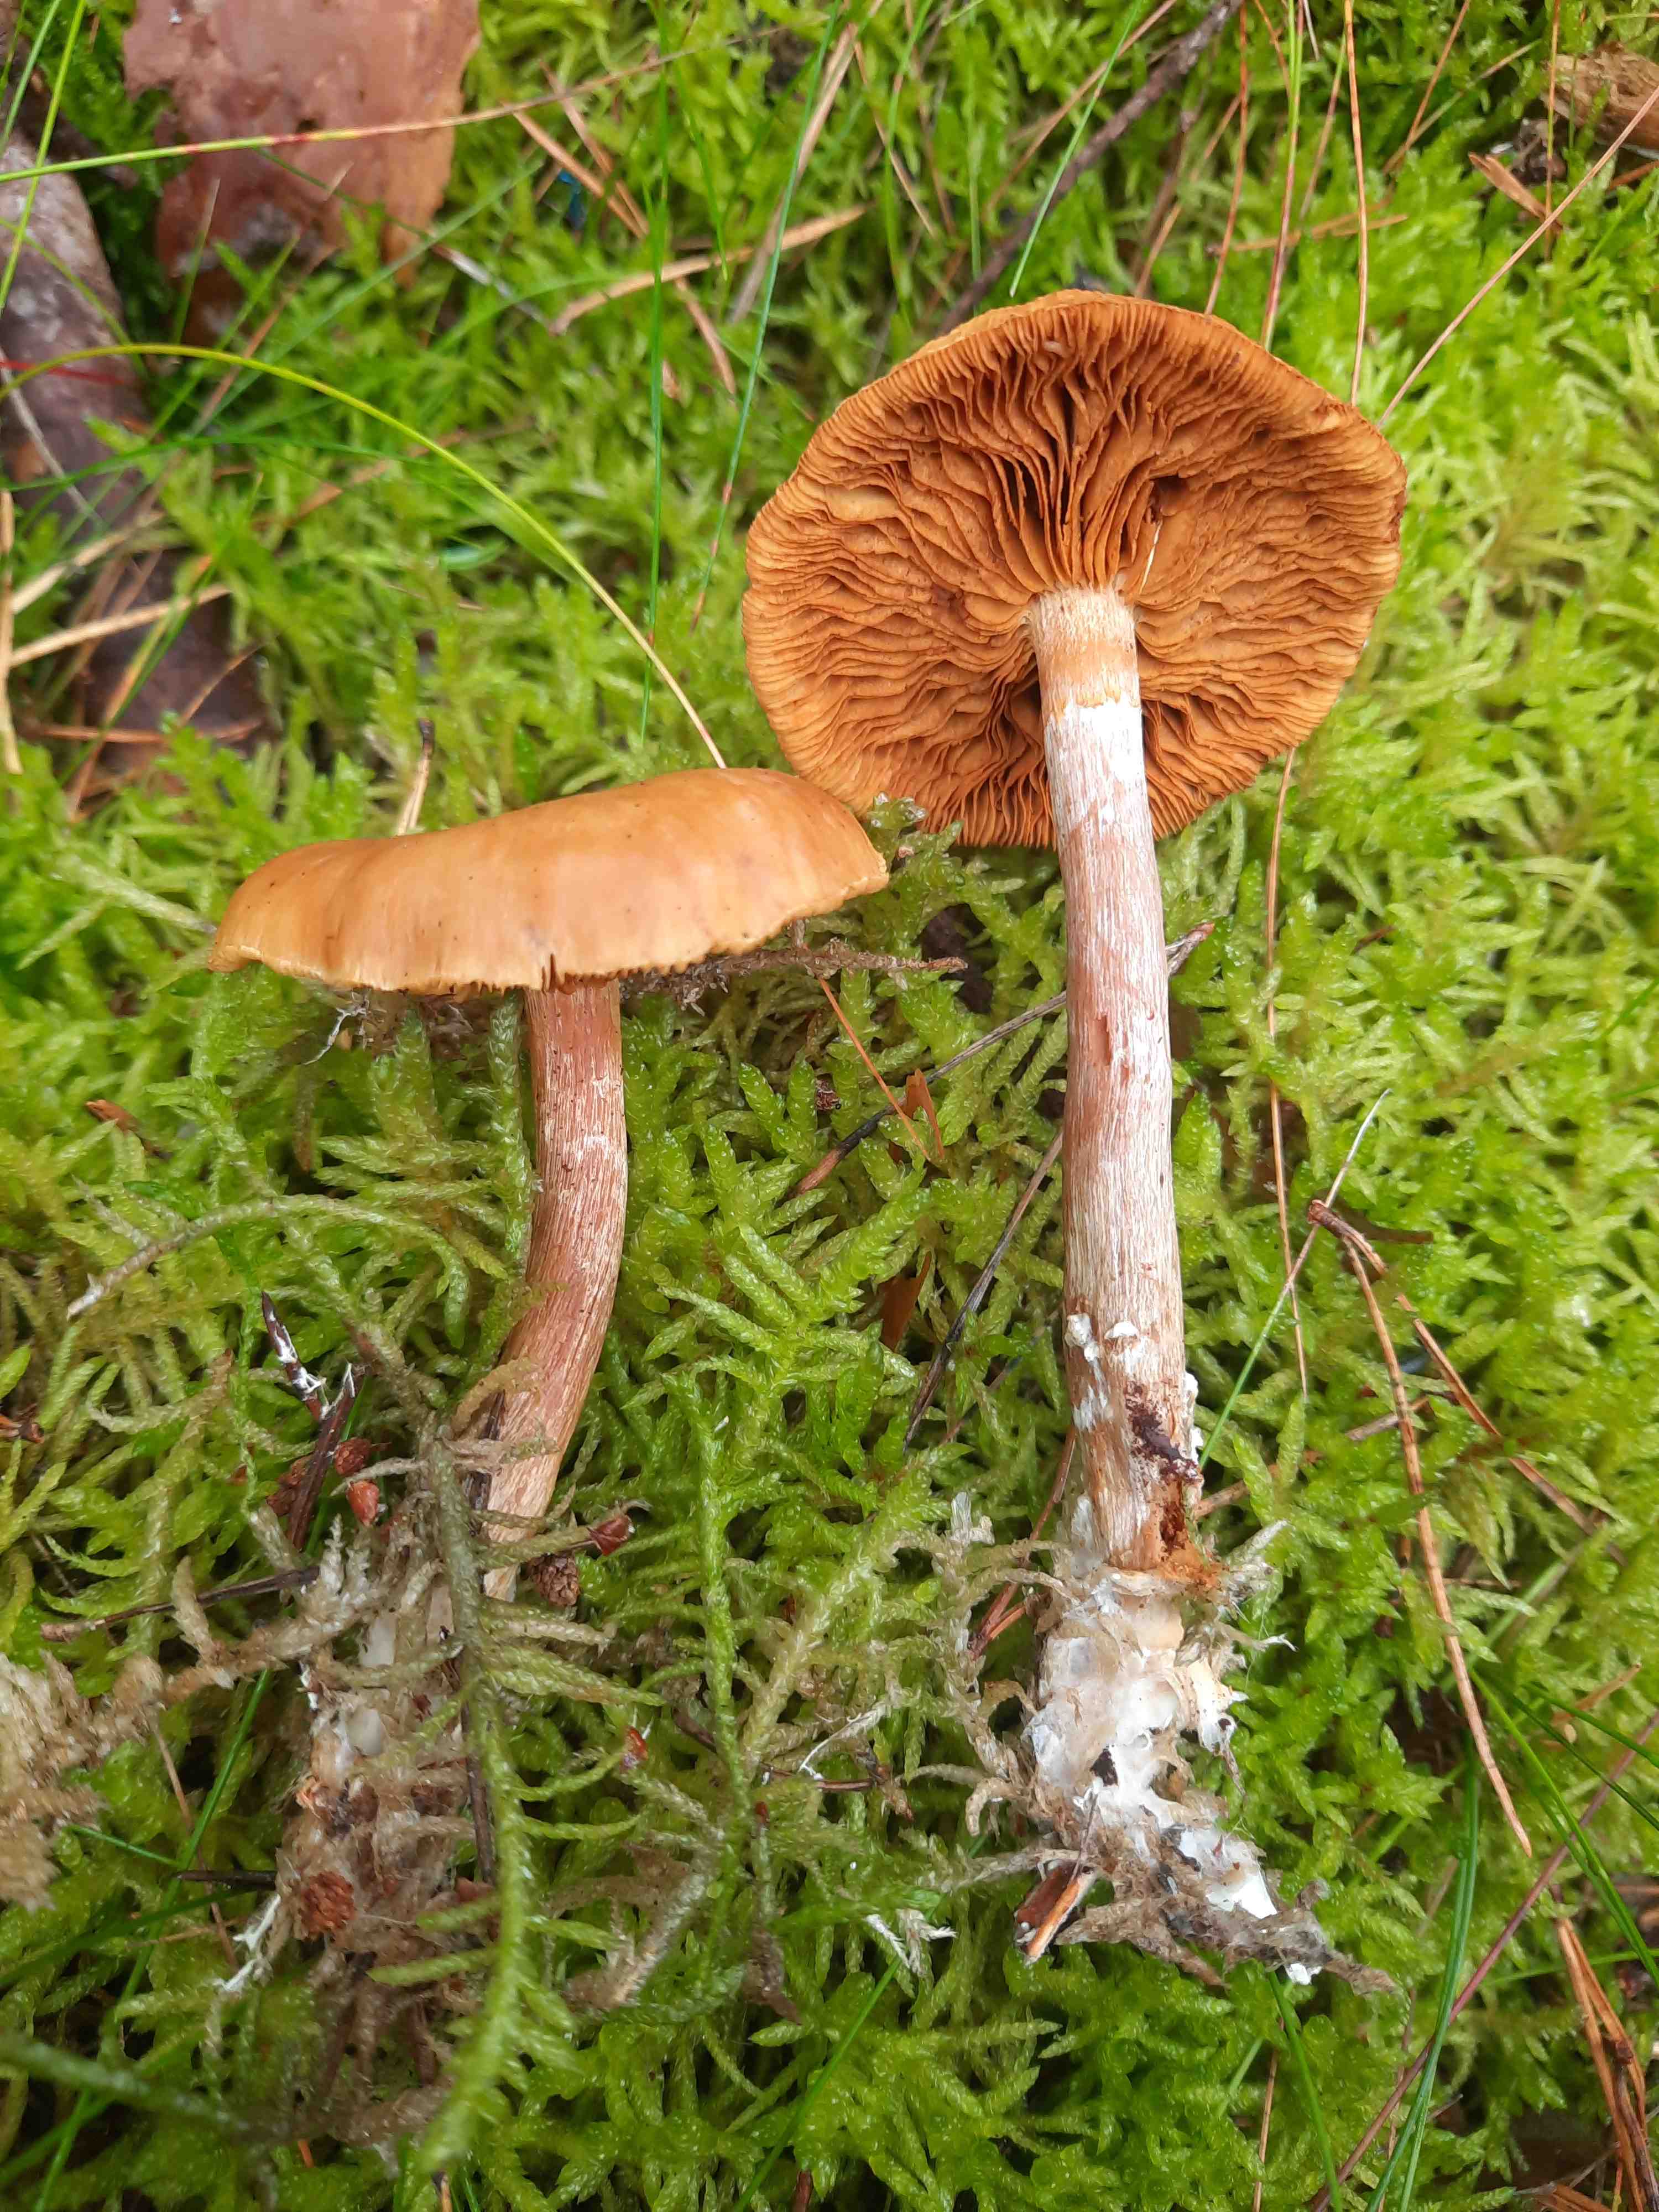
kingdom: Fungi
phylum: Basidiomycota
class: Agaricomycetes
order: Agaricales
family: Hymenogastraceae
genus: Gymnopilus
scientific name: Gymnopilus penetrans
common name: plettet flammehat
